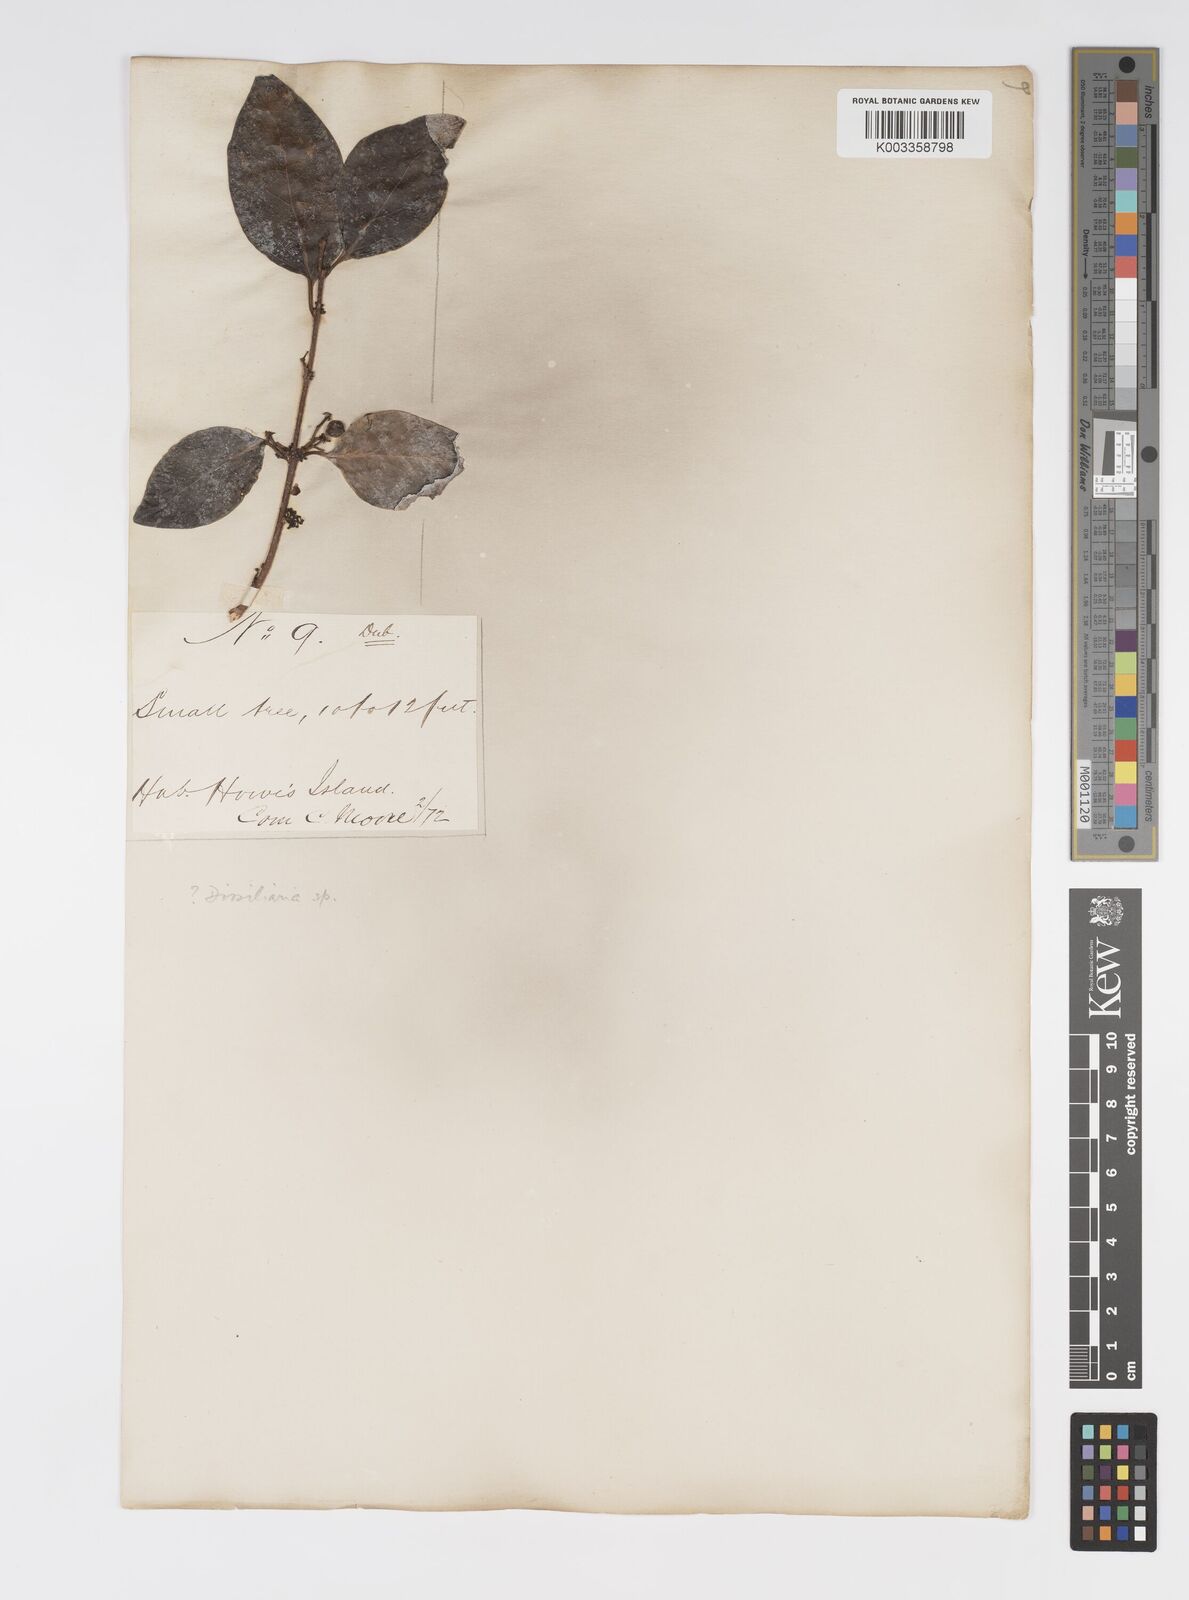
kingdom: Plantae
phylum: Tracheophyta
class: Magnoliopsida
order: Malpighiales
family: Salicaceae
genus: Xylosma
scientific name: Xylosma maidenii
